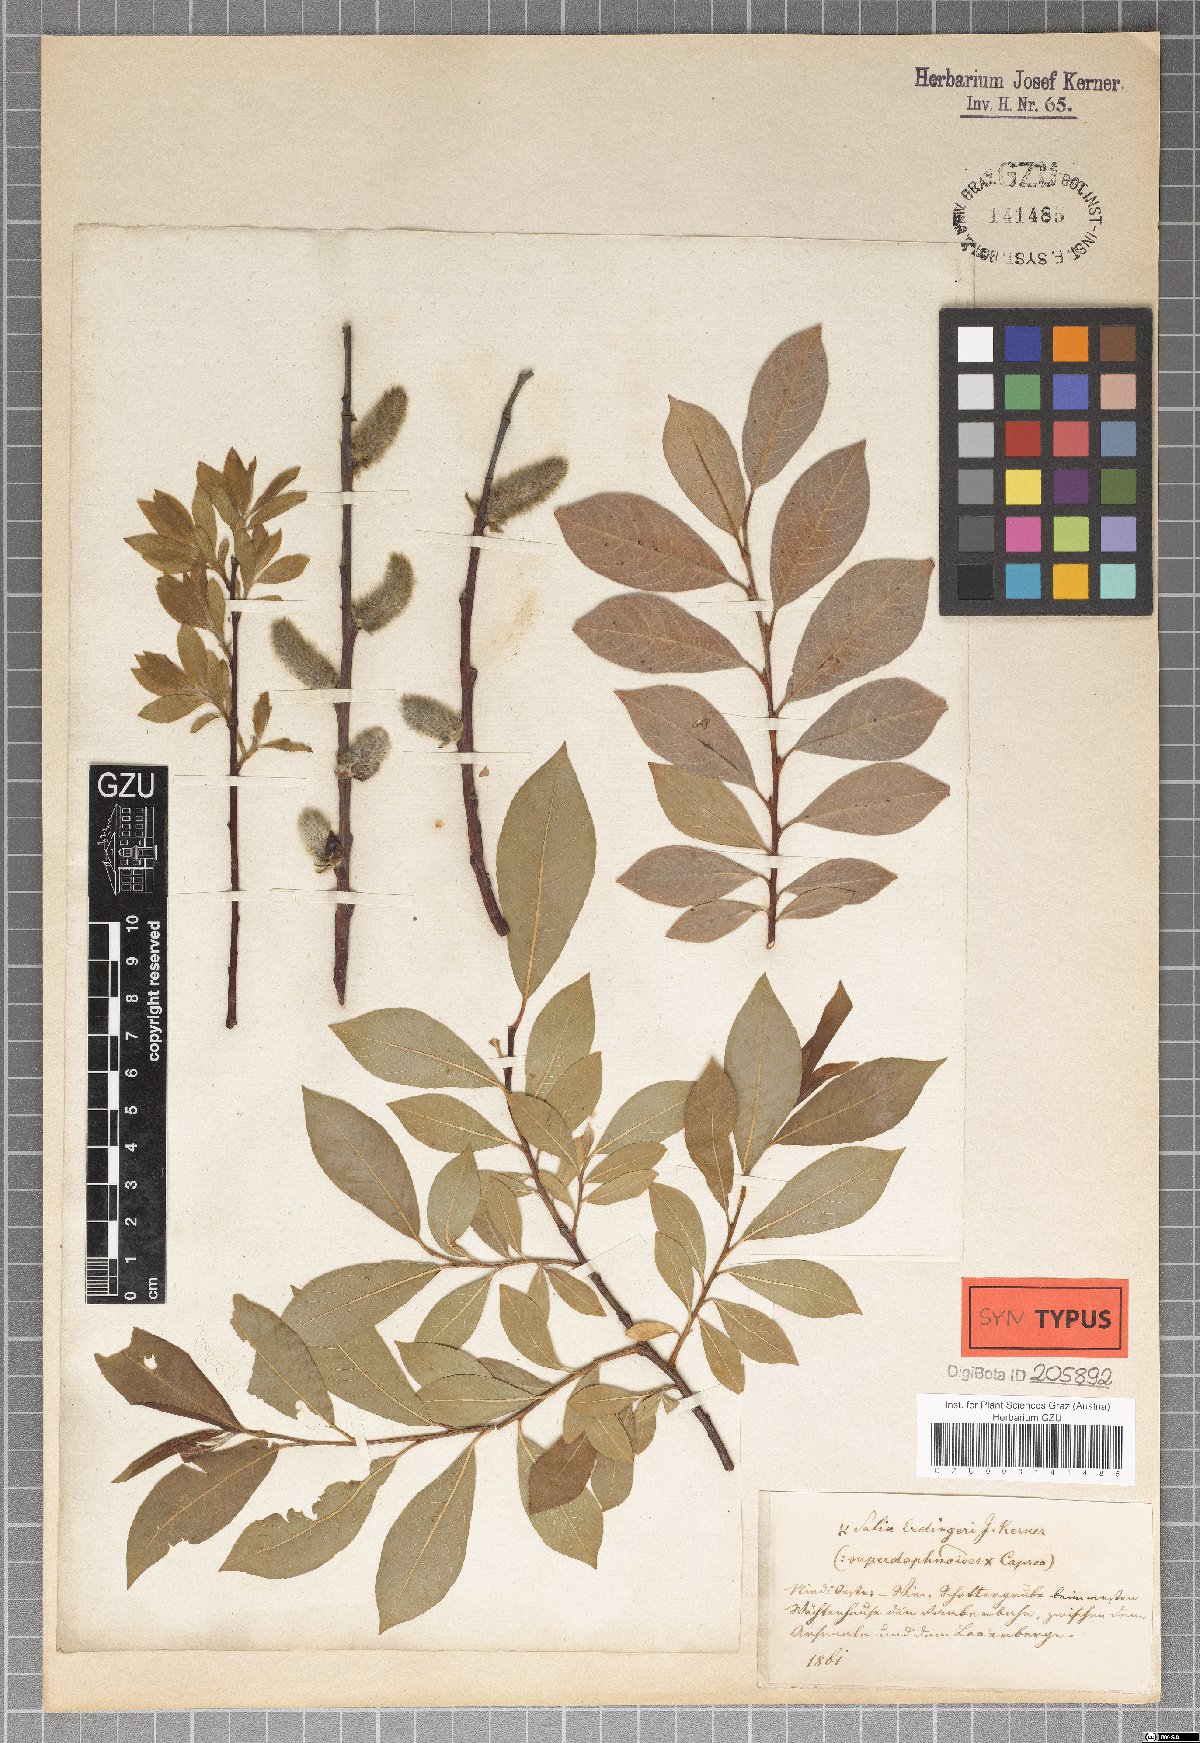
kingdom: Plantae
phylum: Tracheophyta
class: Magnoliopsida
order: Malpighiales
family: Salicaceae
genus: Salix
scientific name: Salix erdingeri
